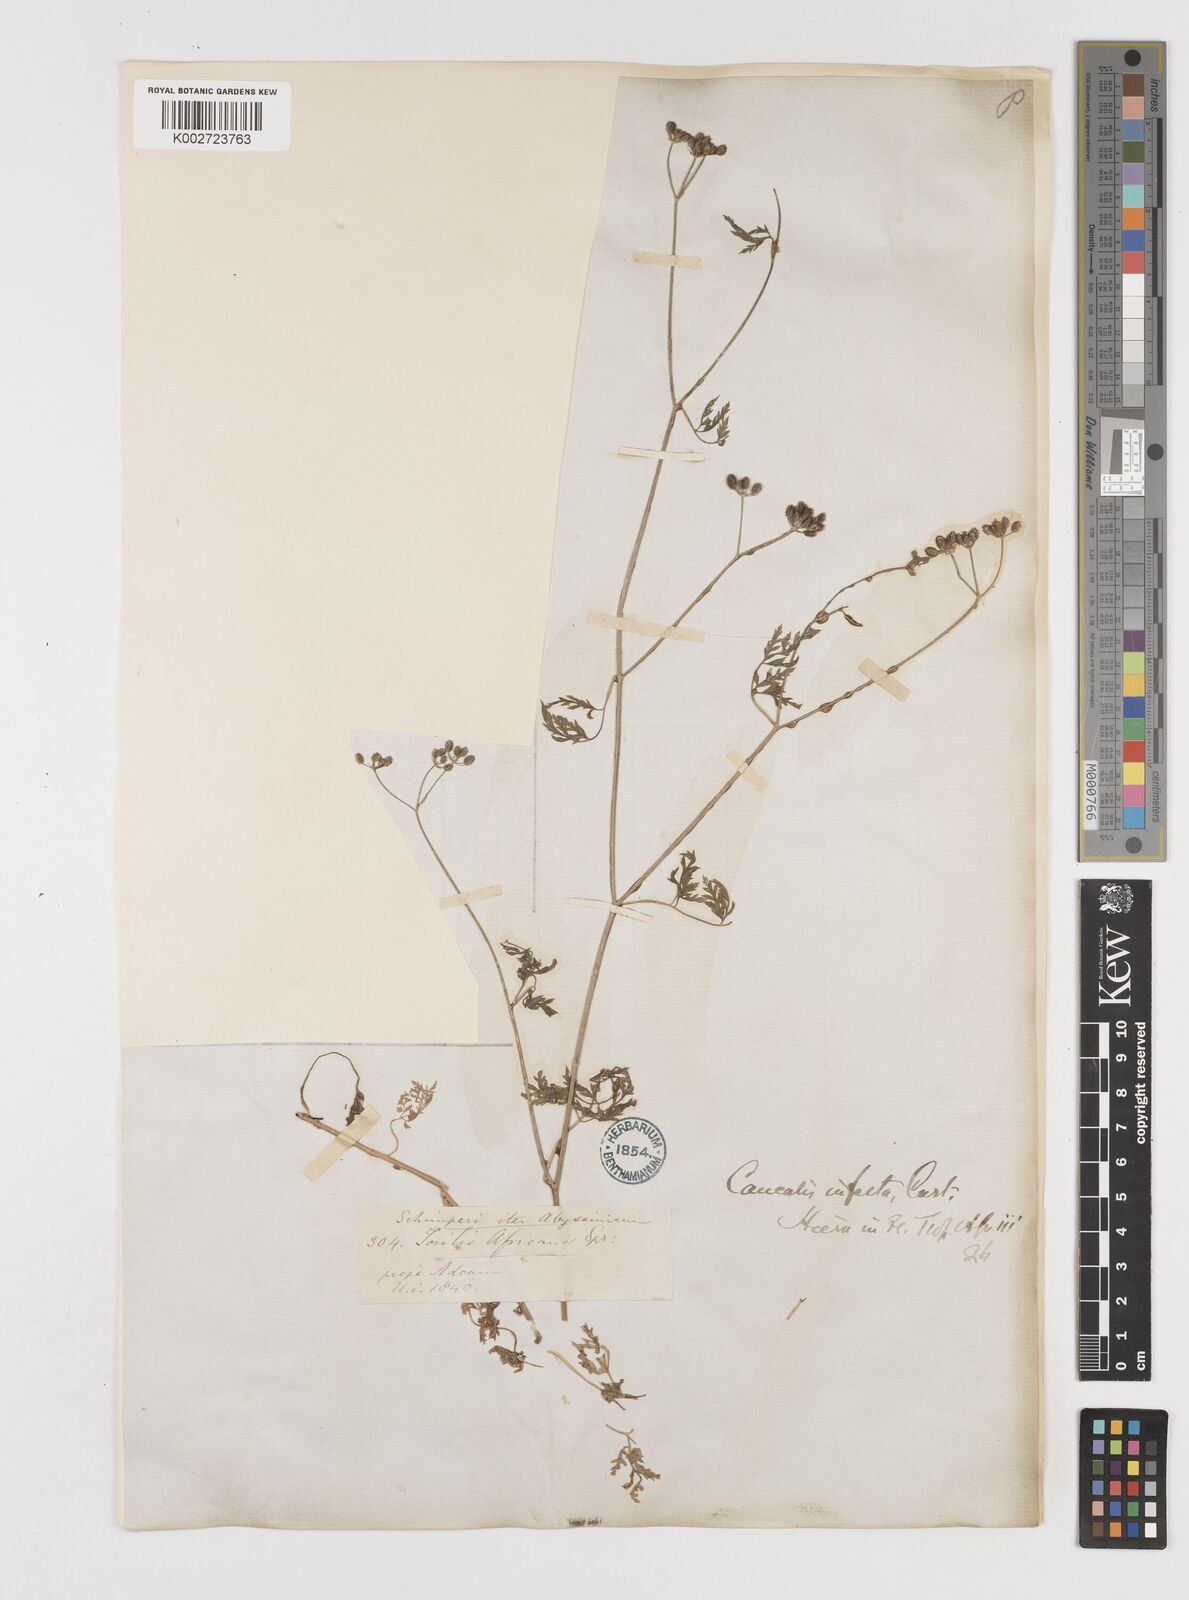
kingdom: Plantae
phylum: Tracheophyta
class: Magnoliopsida
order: Apiales
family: Apiaceae
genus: Torilis
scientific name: Torilis arvensis
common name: Spreading hedge-parsley
